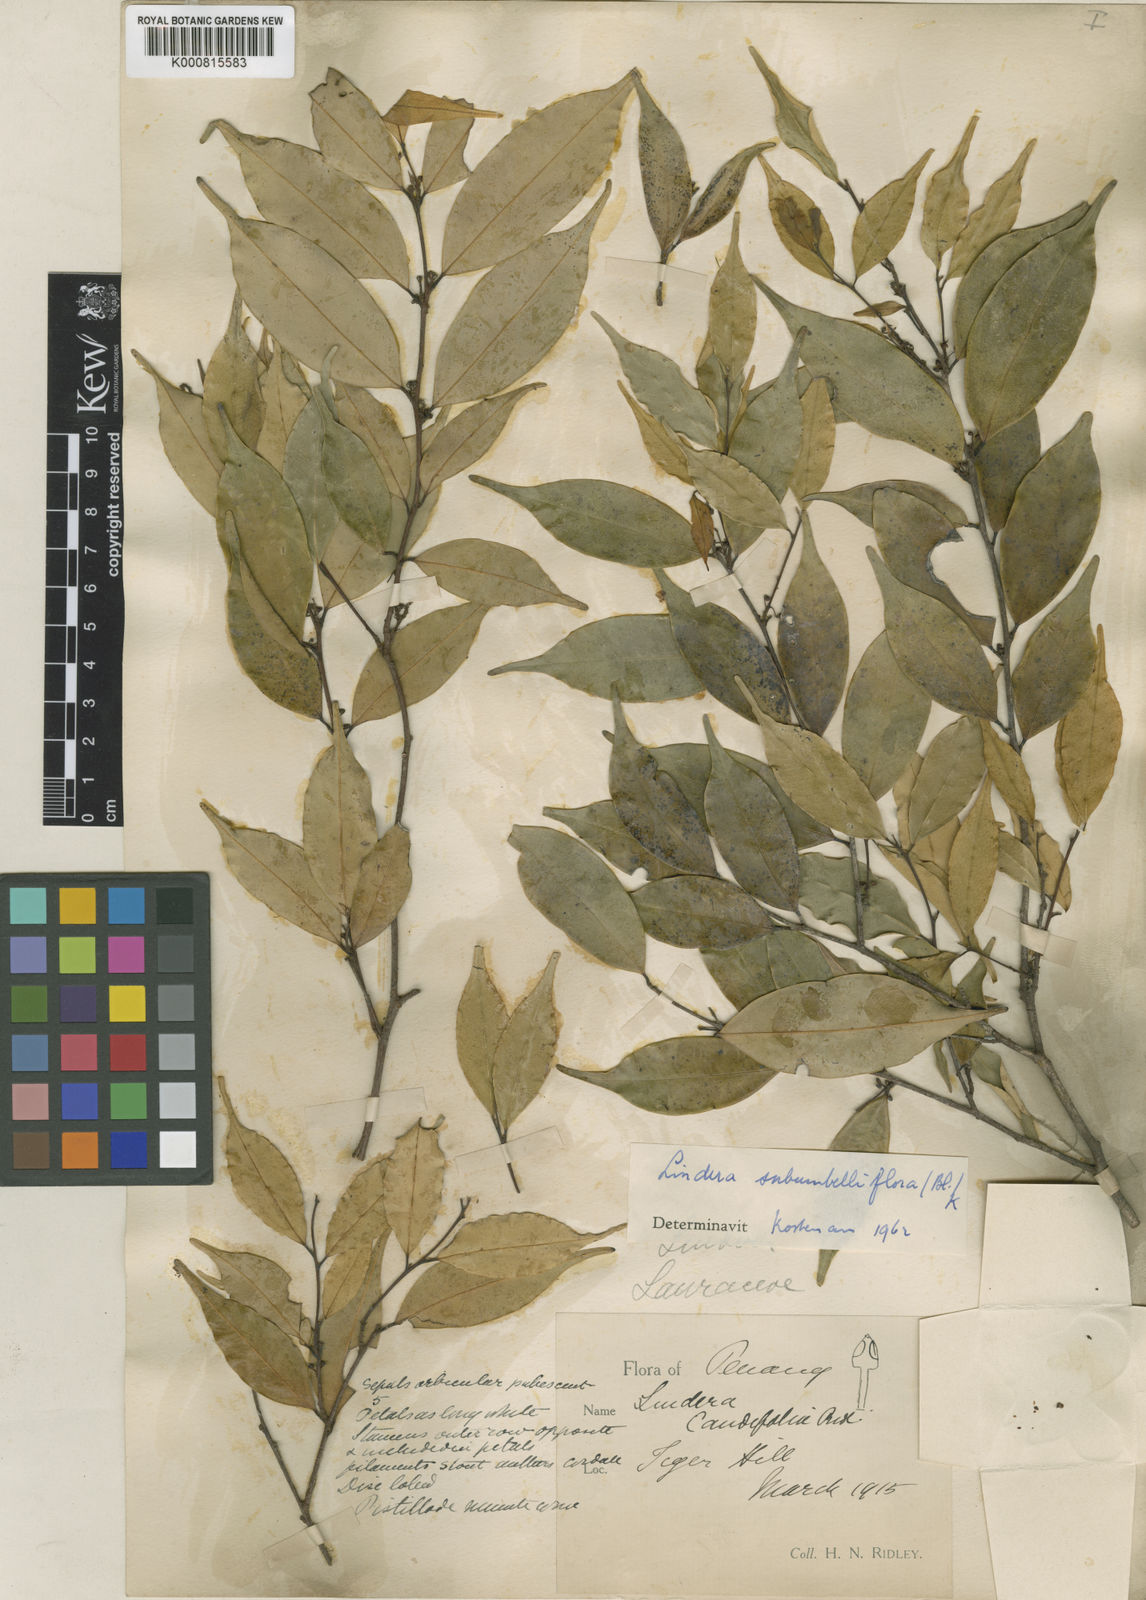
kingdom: Plantae
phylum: Tracheophyta
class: Magnoliopsida
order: Laurales
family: Lauraceae
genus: Lindera
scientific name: Lindera caudifolia
